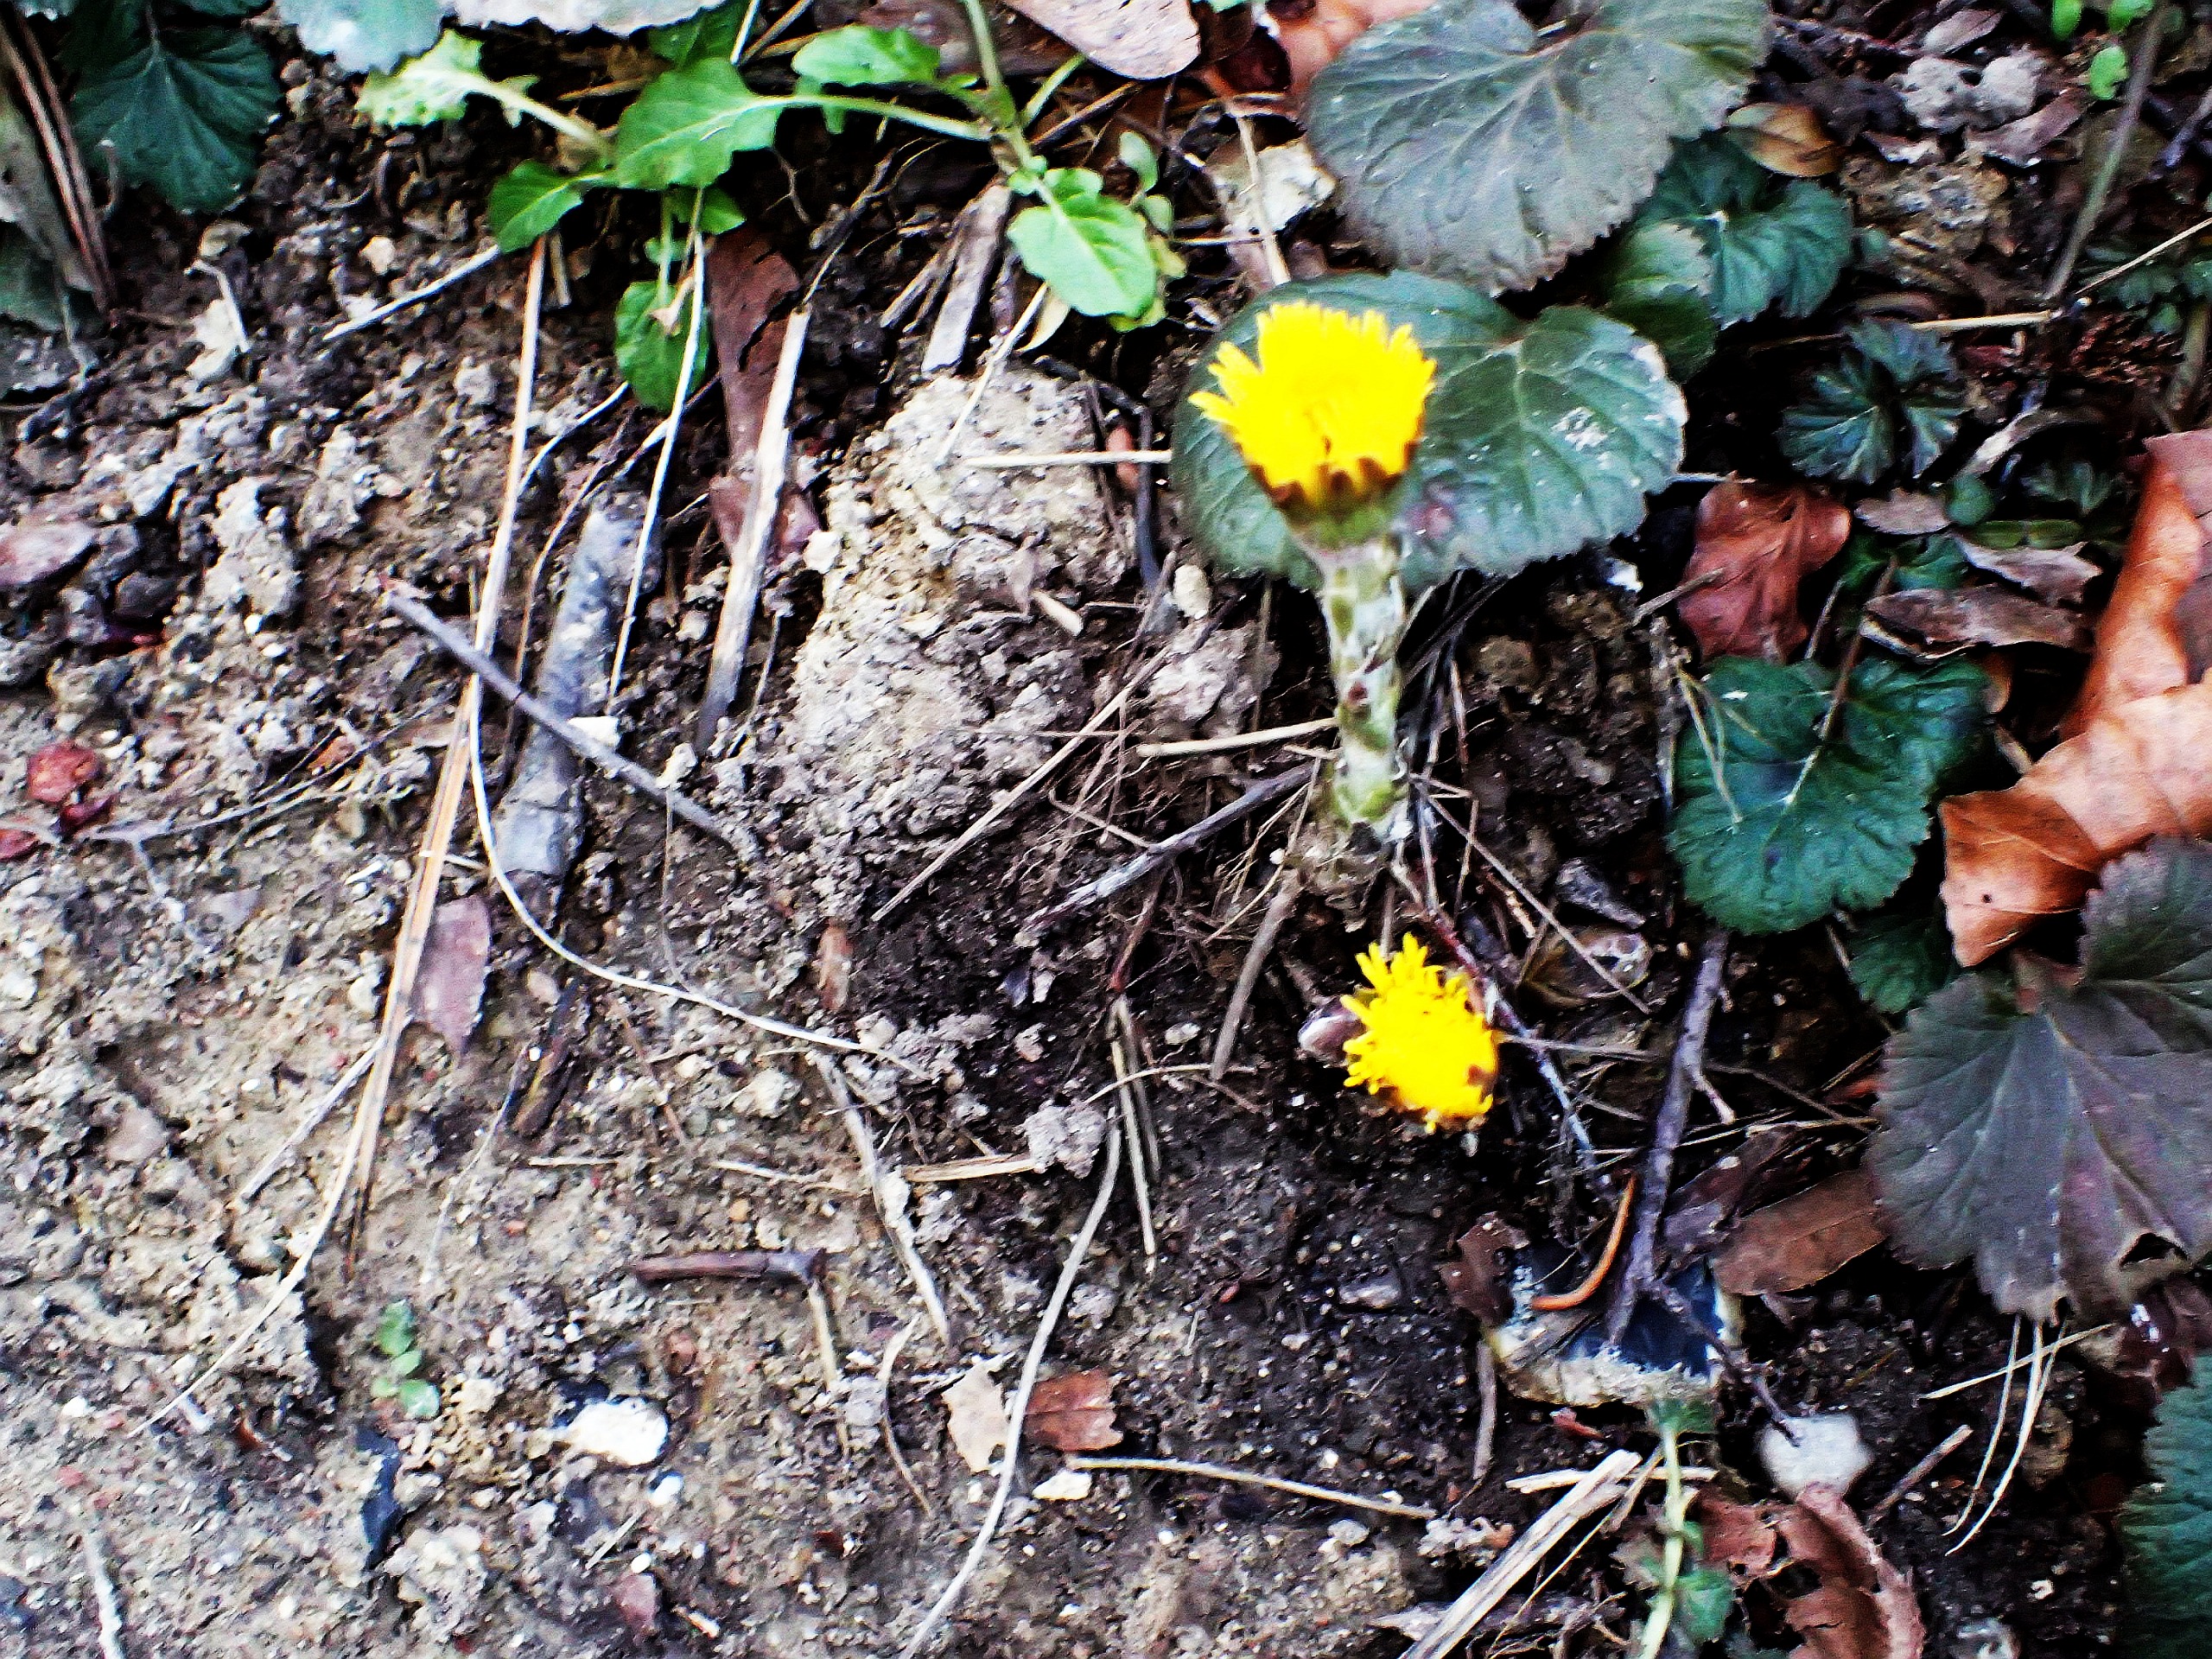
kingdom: Plantae
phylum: Tracheophyta
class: Magnoliopsida
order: Asterales
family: Asteraceae
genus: Tussilago
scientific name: Tussilago farfara
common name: Følfod
